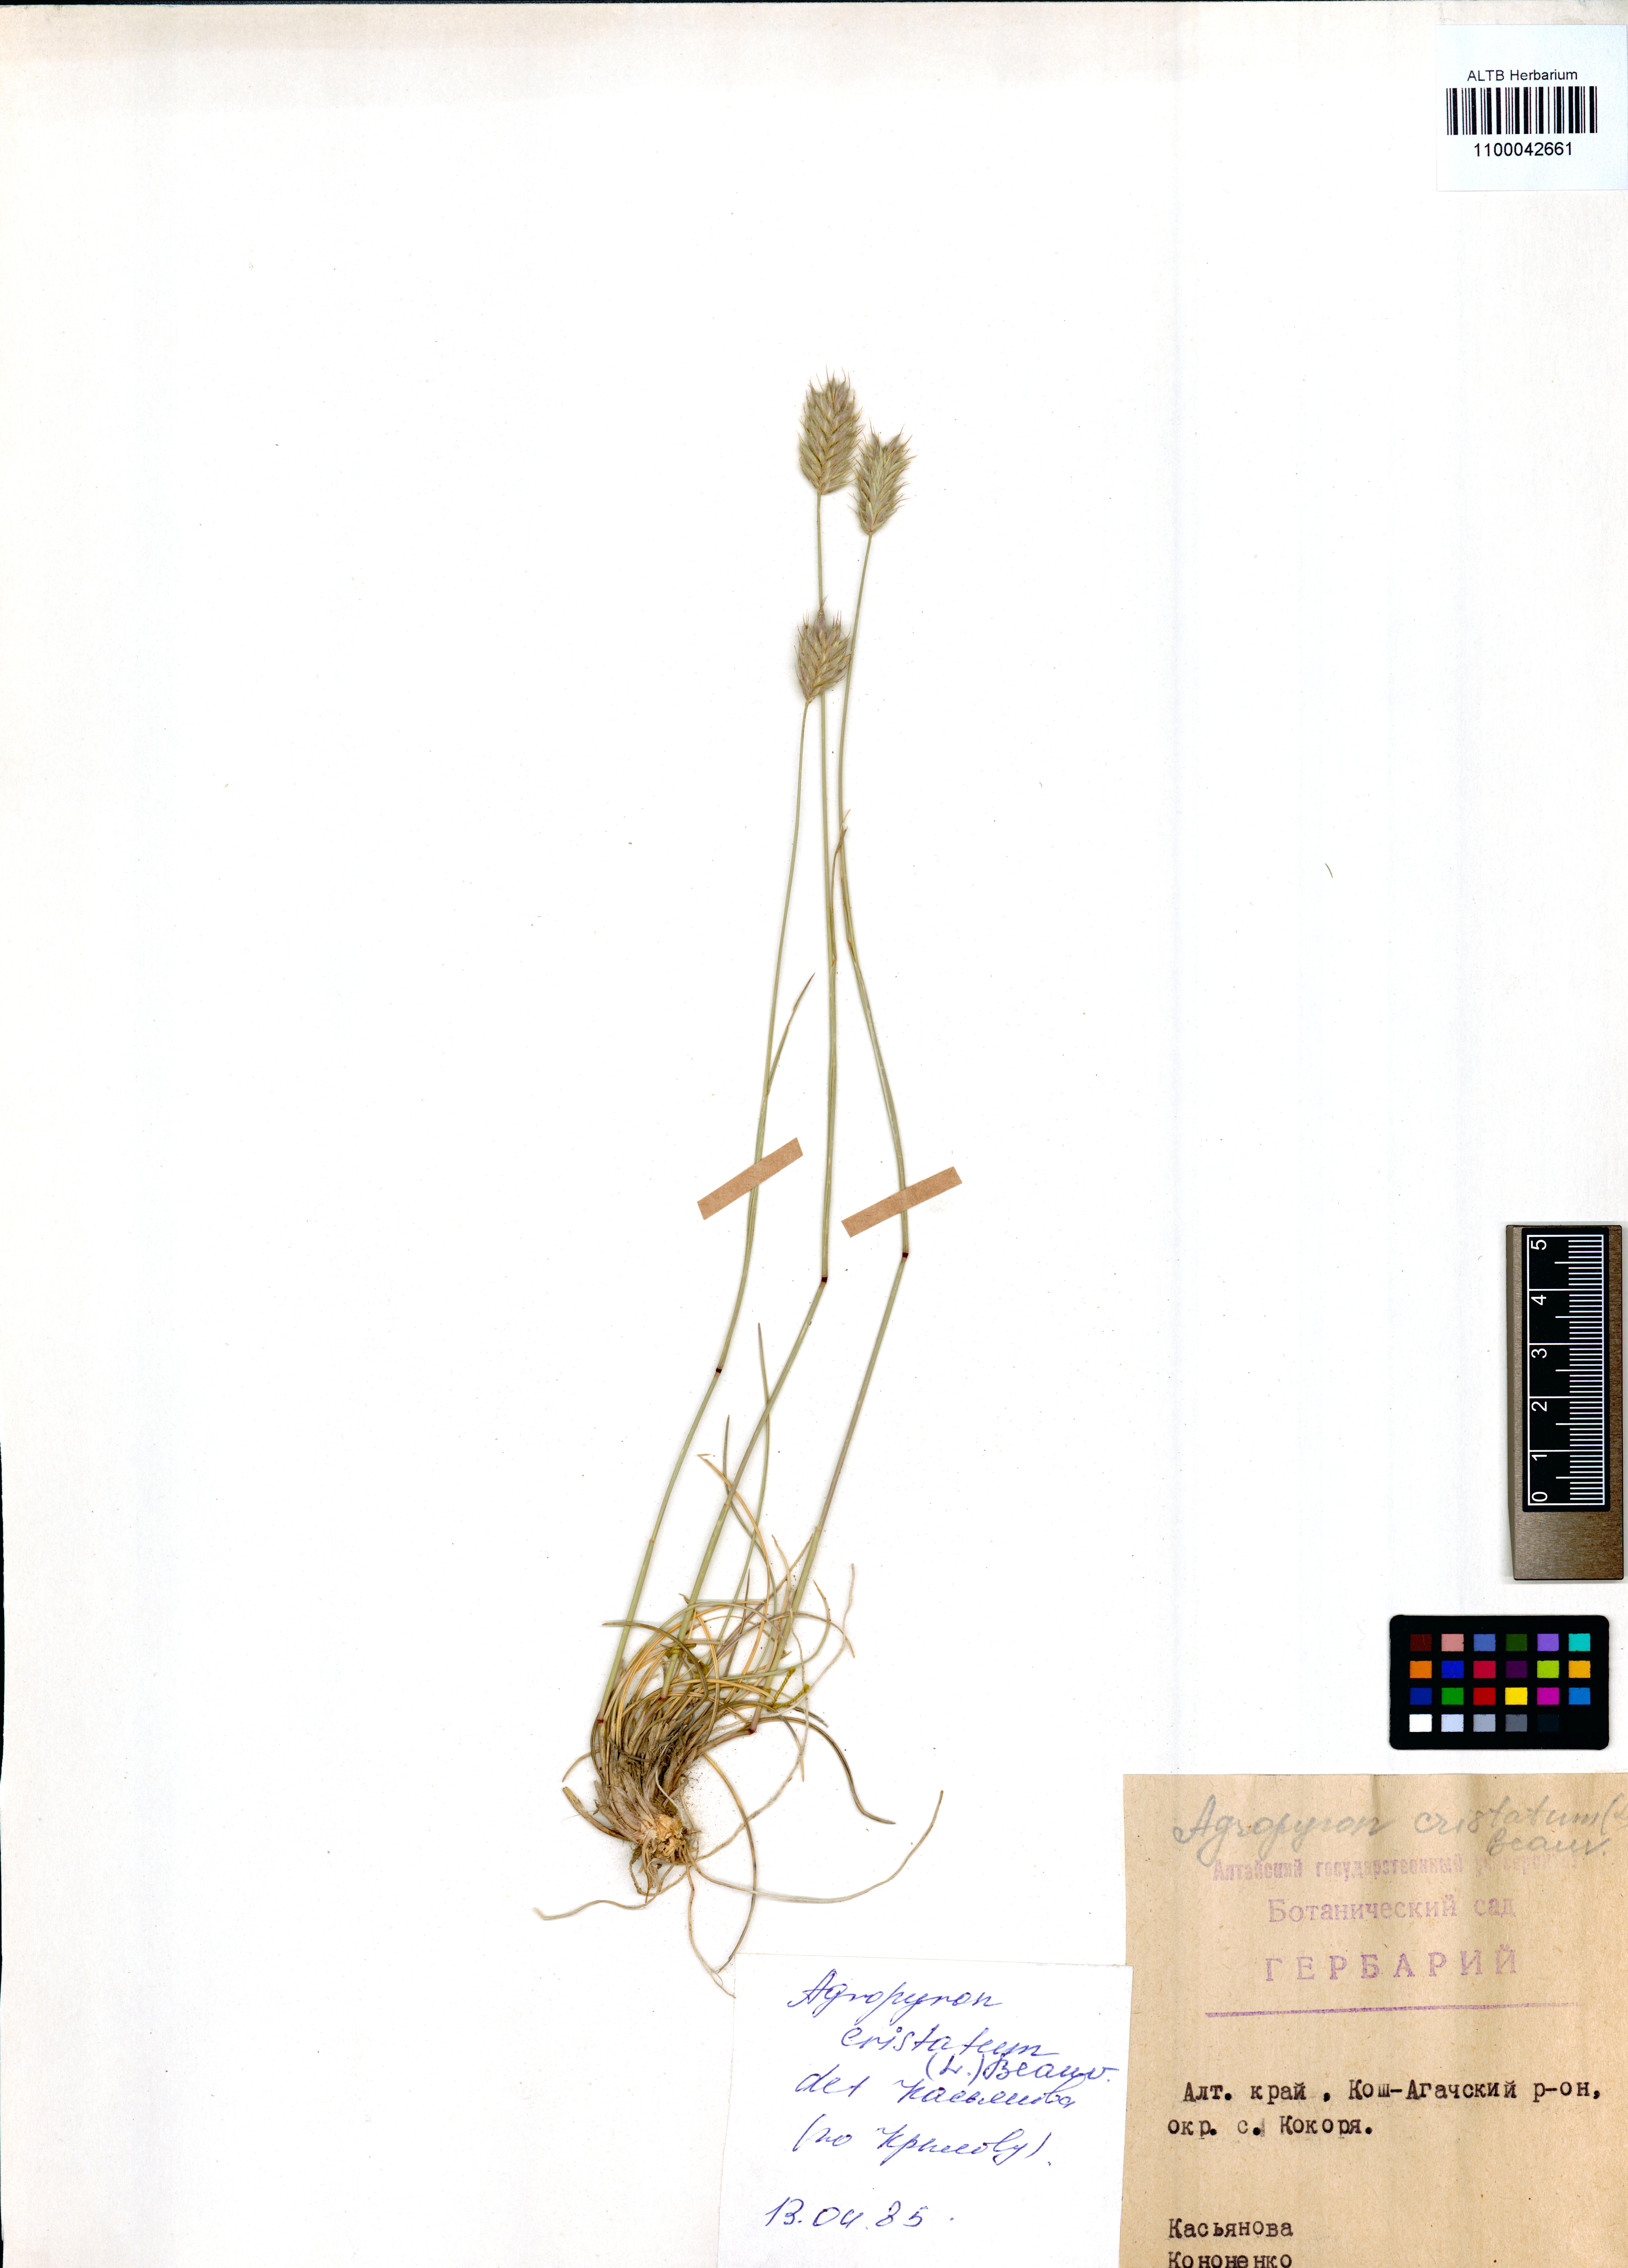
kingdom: Plantae
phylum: Tracheophyta
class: Liliopsida
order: Poales
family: Poaceae
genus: Agropyron
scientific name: Agropyron cristatum
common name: Crested wheatgrass
